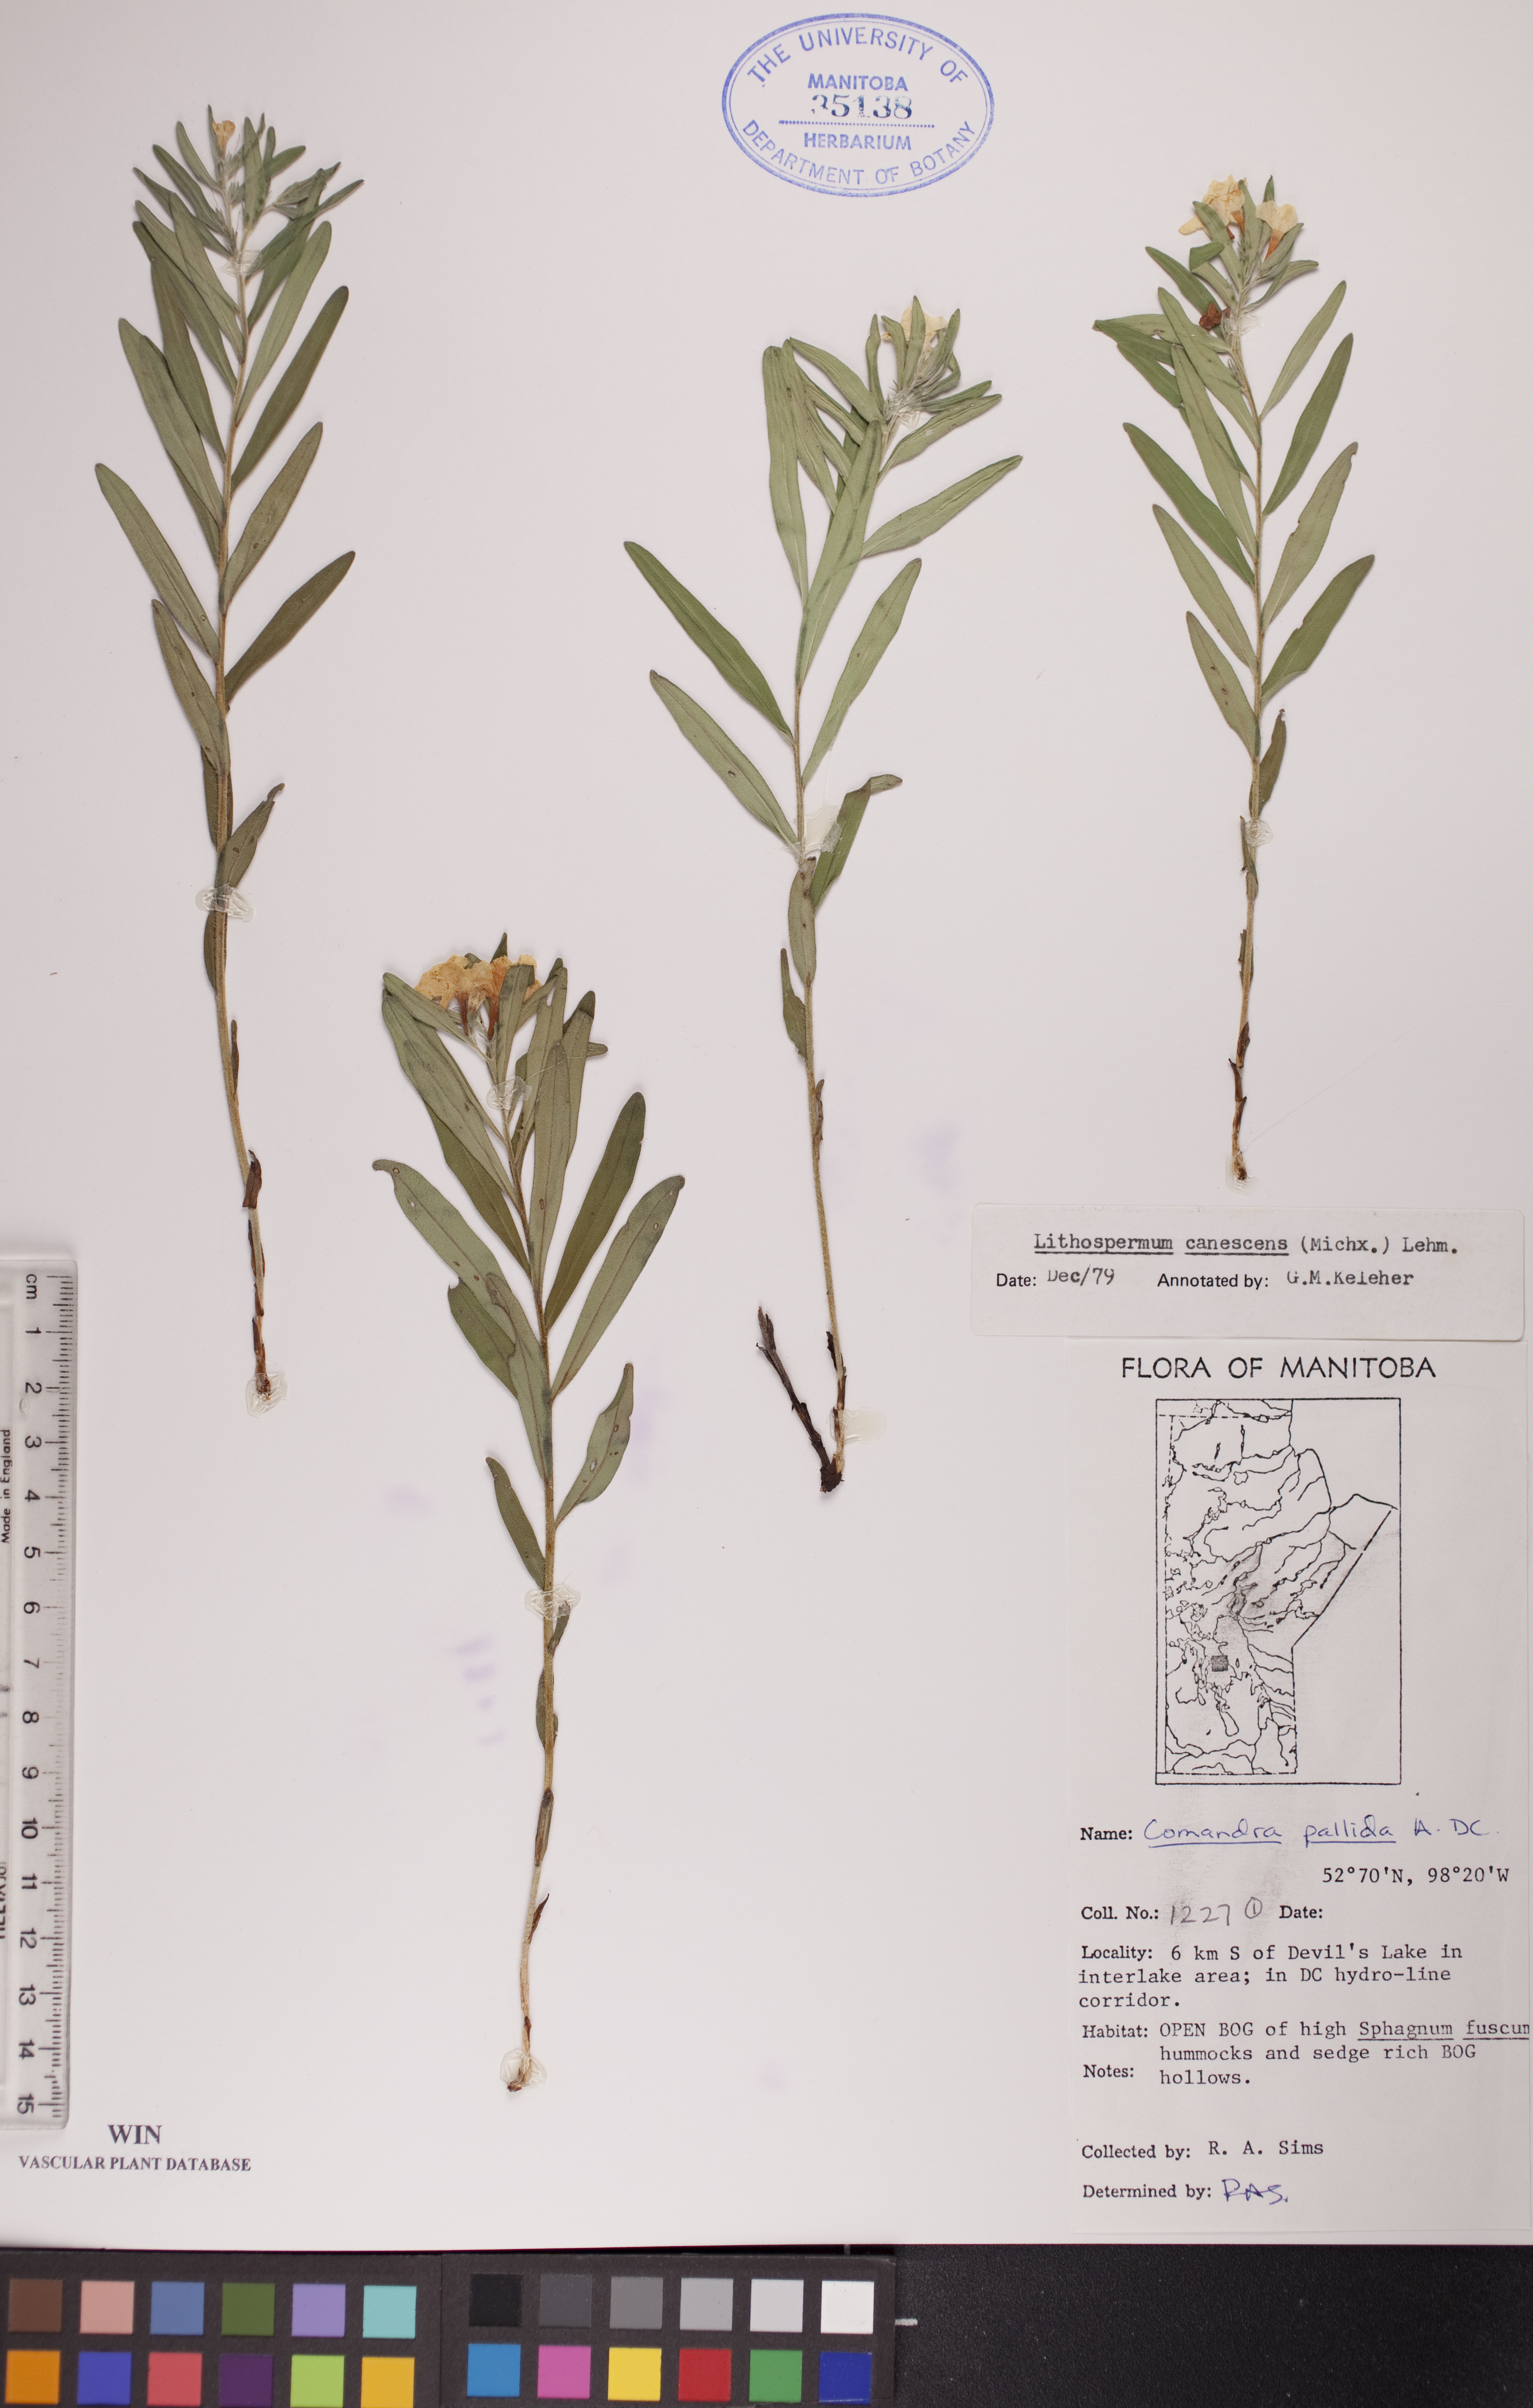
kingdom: Plantae
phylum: Tracheophyta
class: Magnoliopsida
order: Boraginales
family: Boraginaceae
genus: Lithospermum
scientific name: Lithospermum canescens
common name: Hoary puccoon
